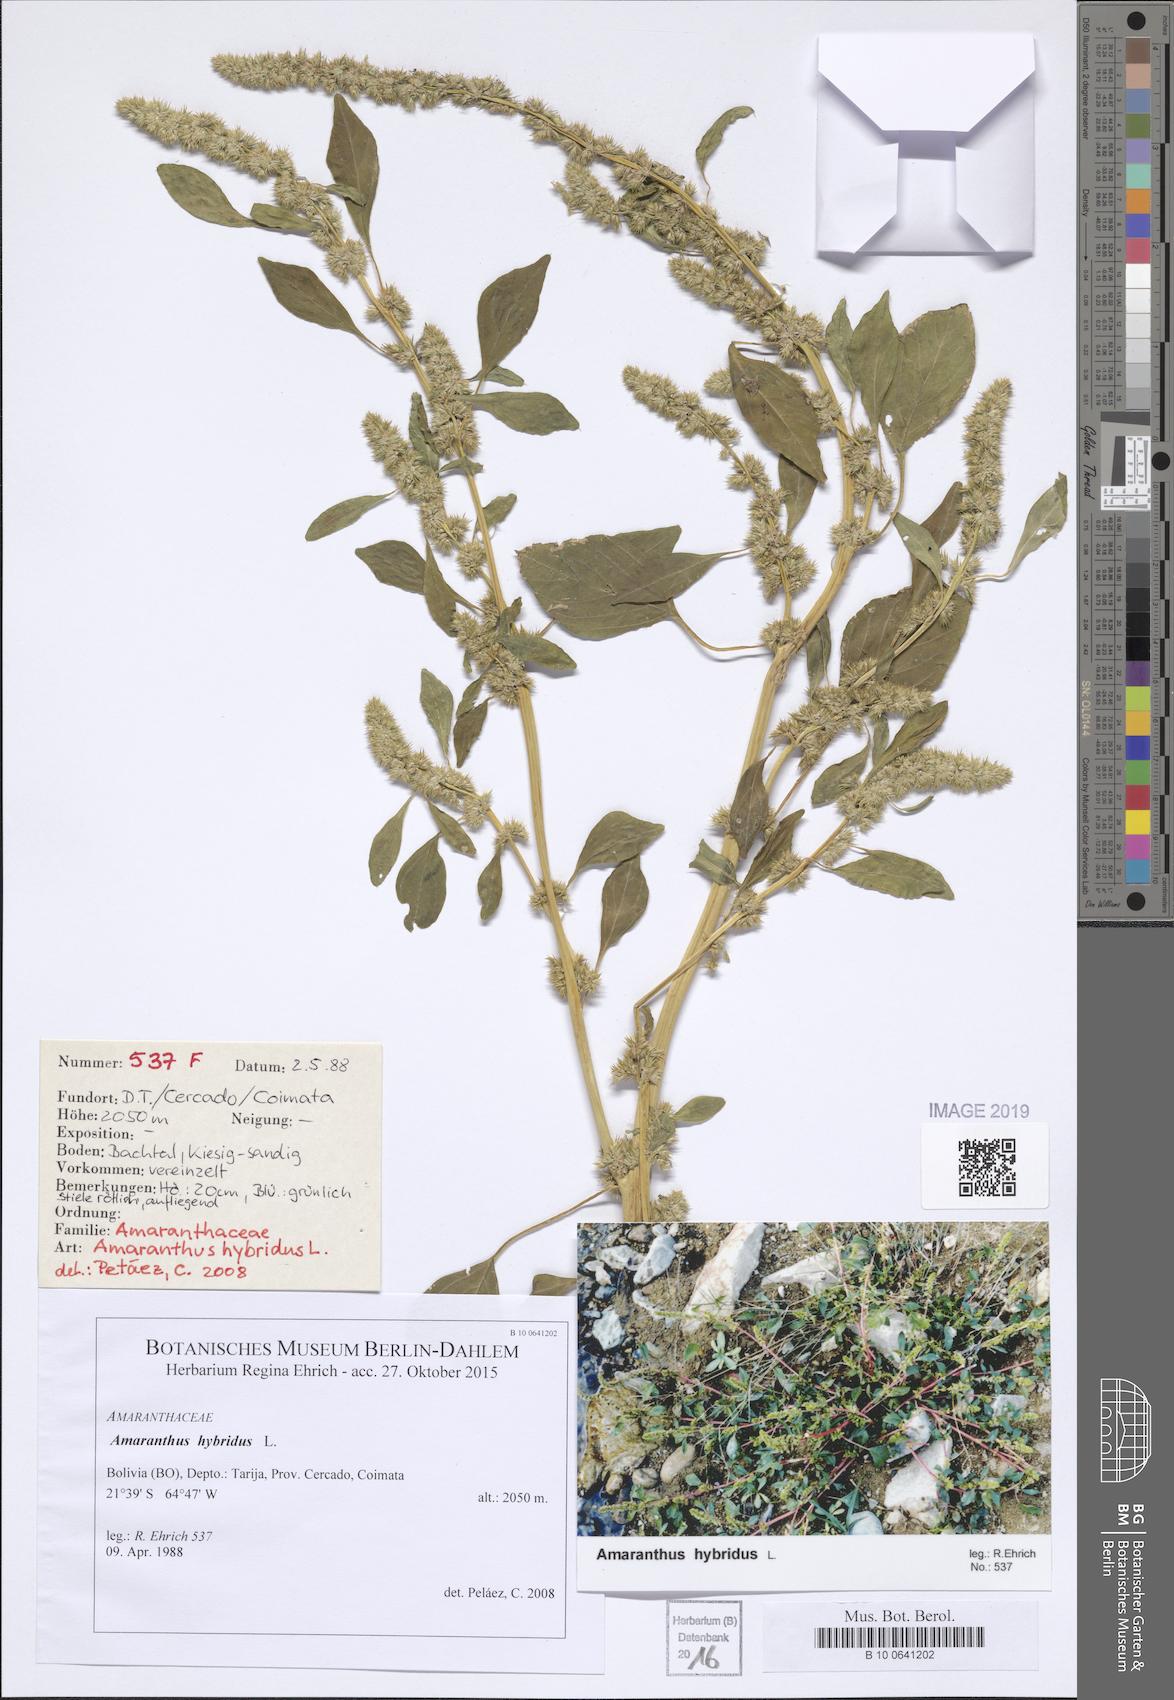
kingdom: Plantae
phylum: Tracheophyta
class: Magnoliopsida
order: Caryophyllales
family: Amaranthaceae
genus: Amaranthus
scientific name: Amaranthus hybridus
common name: Green amaranth
